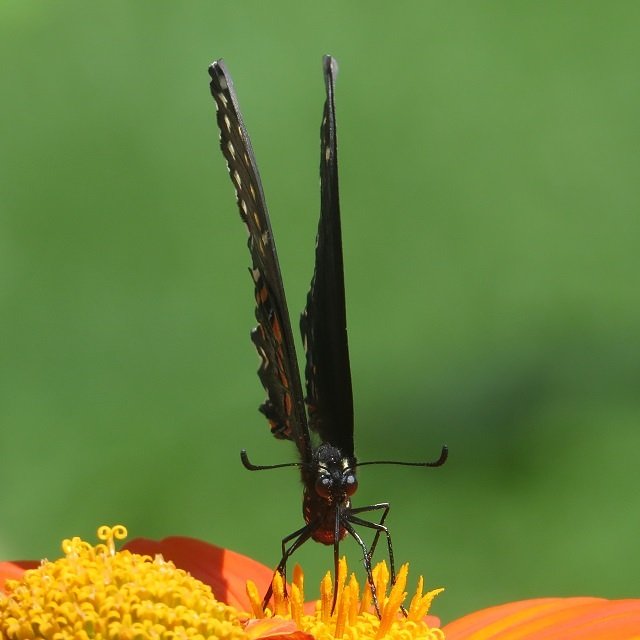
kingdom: Animalia
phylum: Arthropoda
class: Insecta
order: Lepidoptera
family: Papilionidae
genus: Papilio
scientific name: Papilio polyxenes
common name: Black Swallowtail
